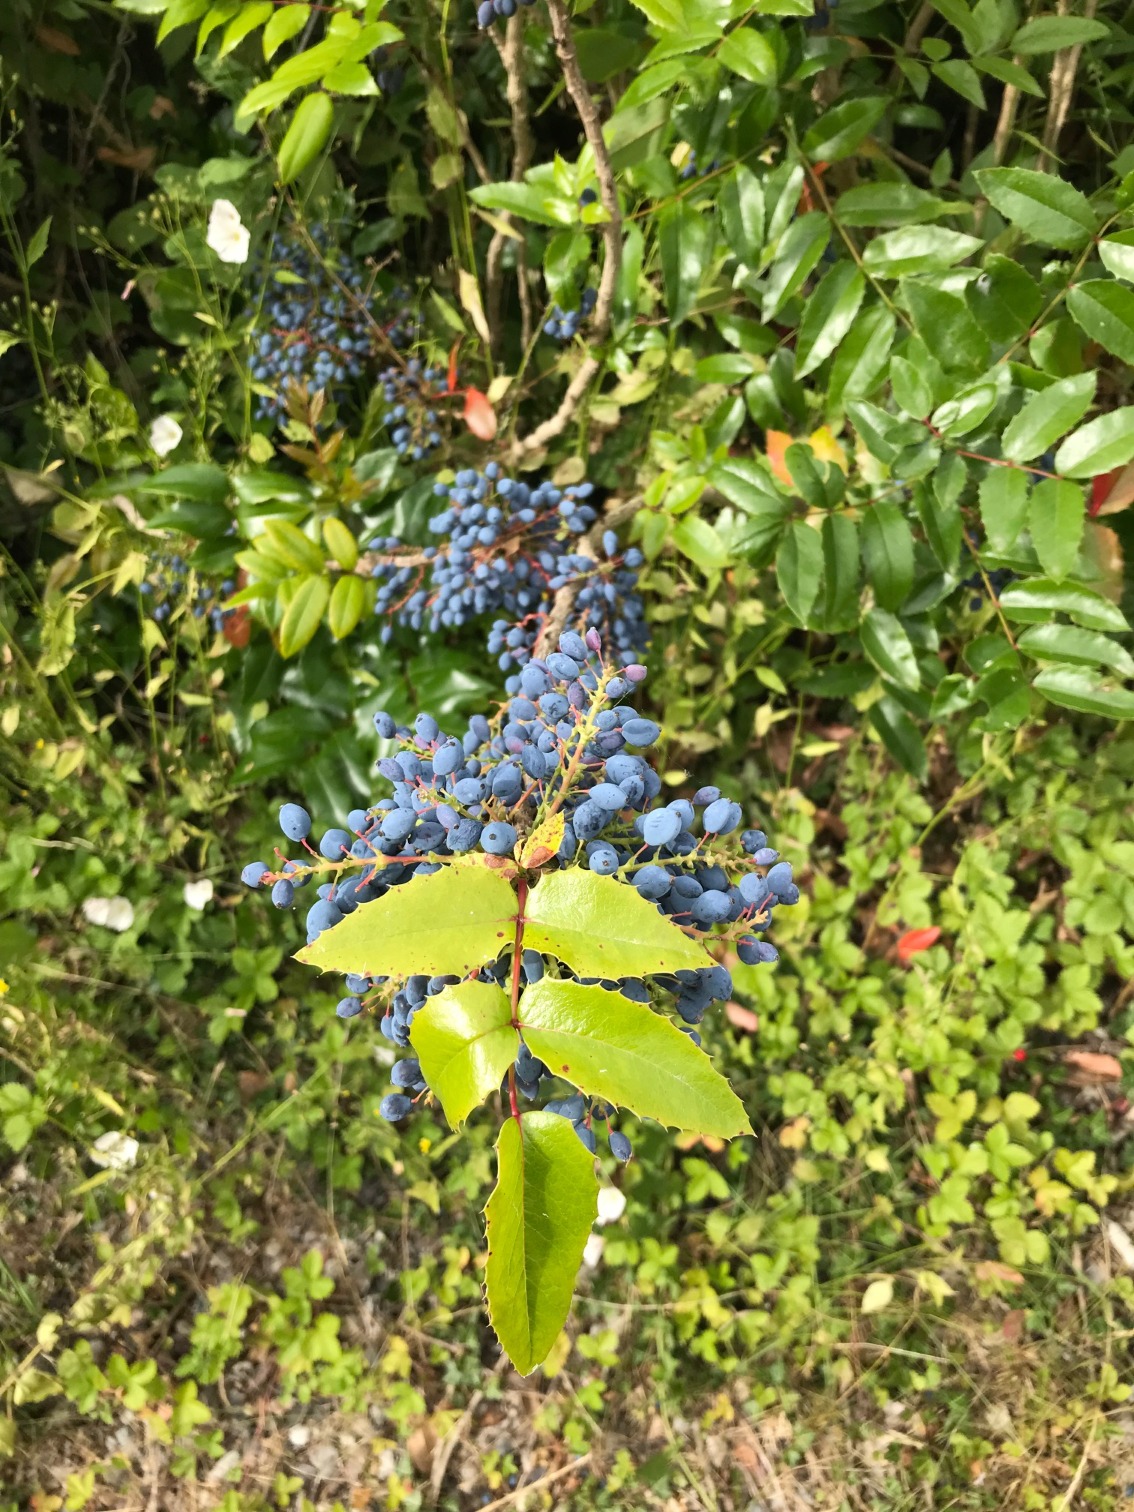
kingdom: Plantae
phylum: Tracheophyta
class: Magnoliopsida
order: Ranunculales
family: Berberidaceae
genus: Mahonia
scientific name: Mahonia aquifolium
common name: Almindelig mahonie
